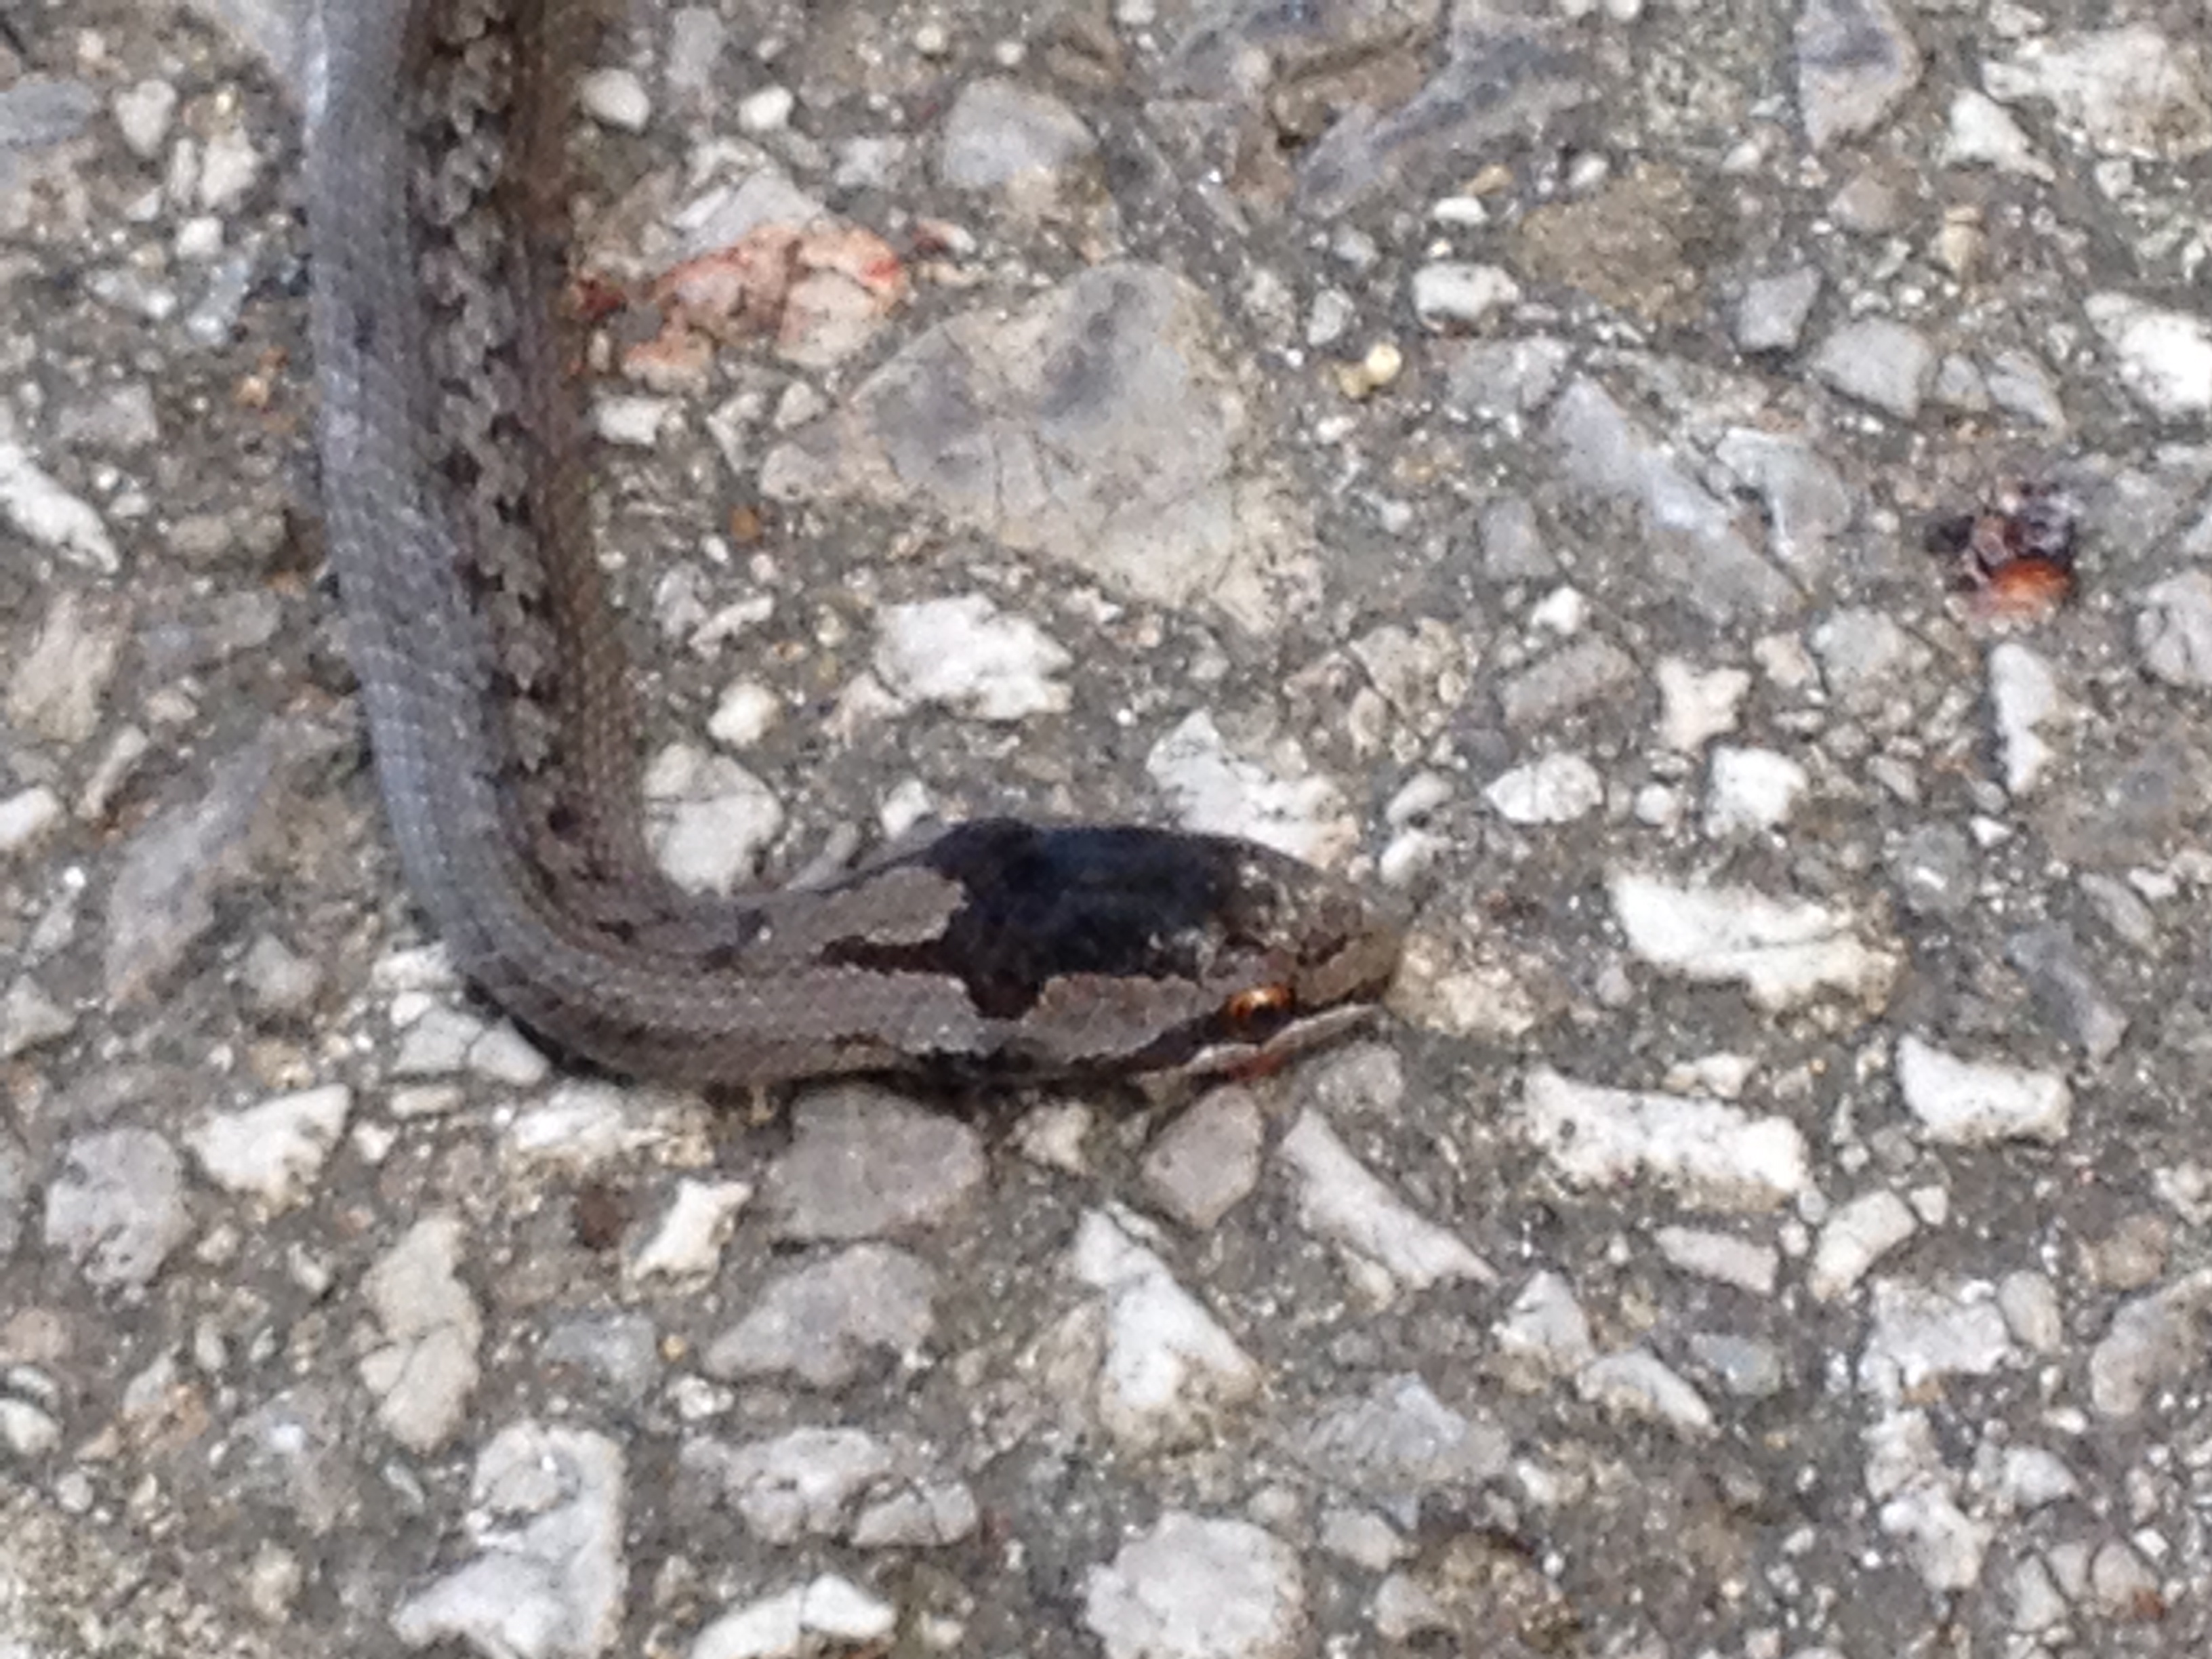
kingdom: Animalia
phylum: Chordata
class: Squamata
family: Colubridae
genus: Coronella
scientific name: Coronella austriaca
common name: Smooth snake
